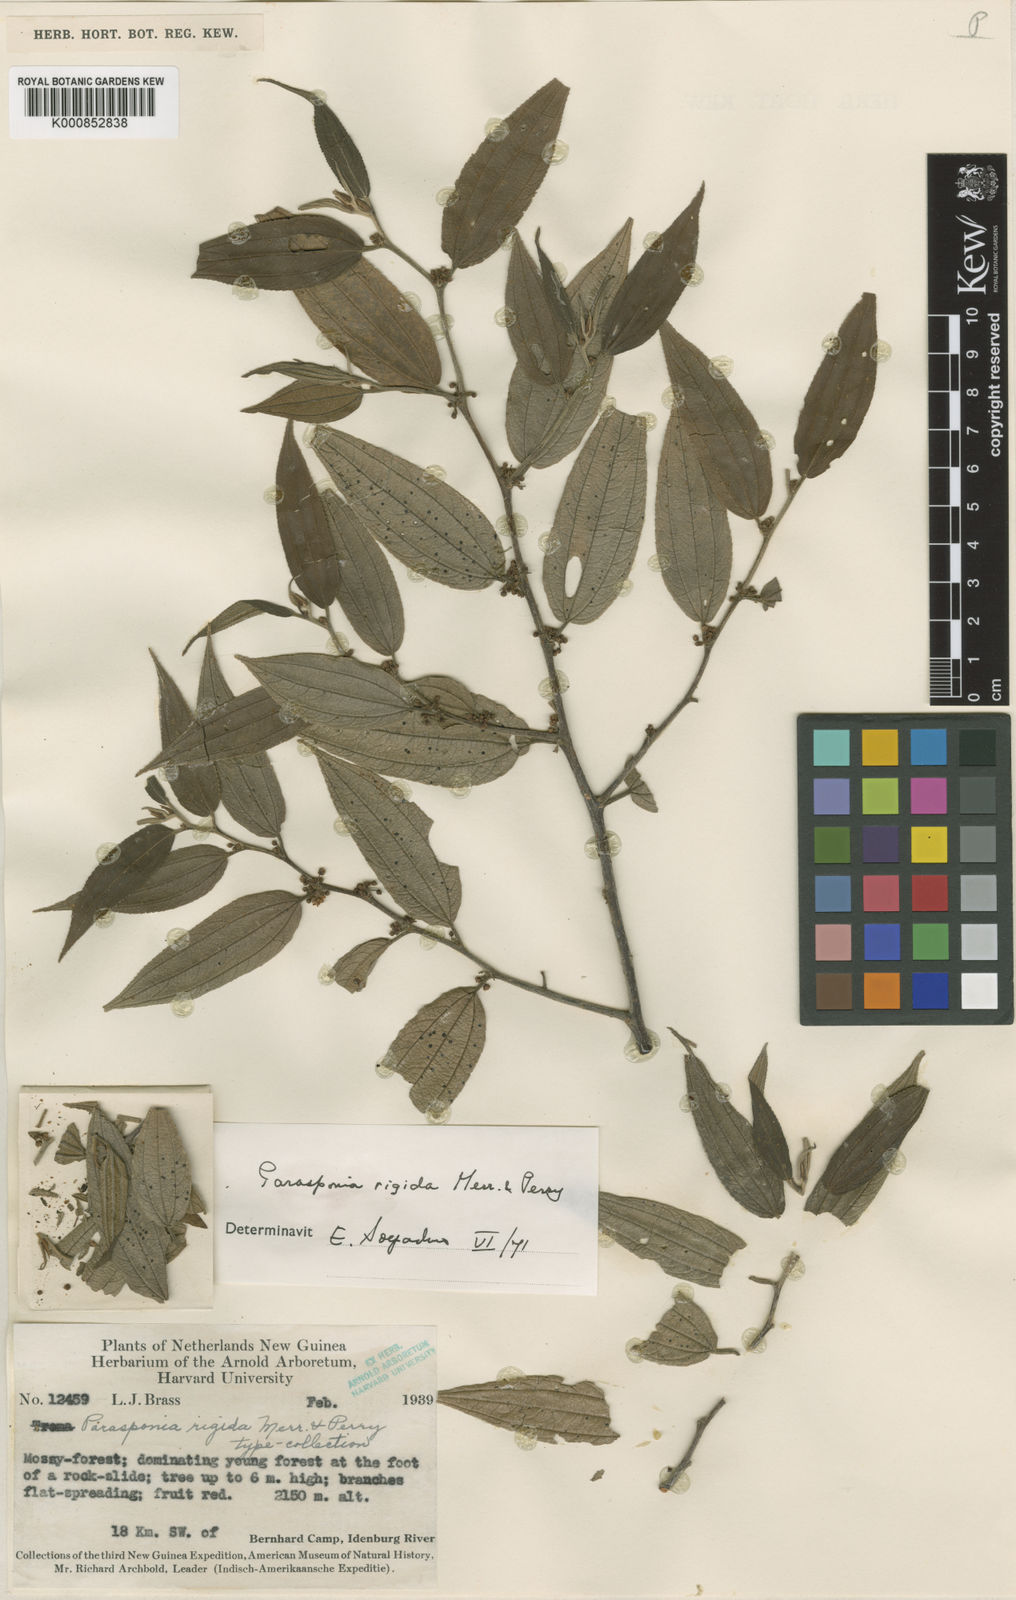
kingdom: Plantae
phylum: Tracheophyta
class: Magnoliopsida
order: Rosales
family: Cannabaceae
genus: Trema
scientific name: Trema rigidum
